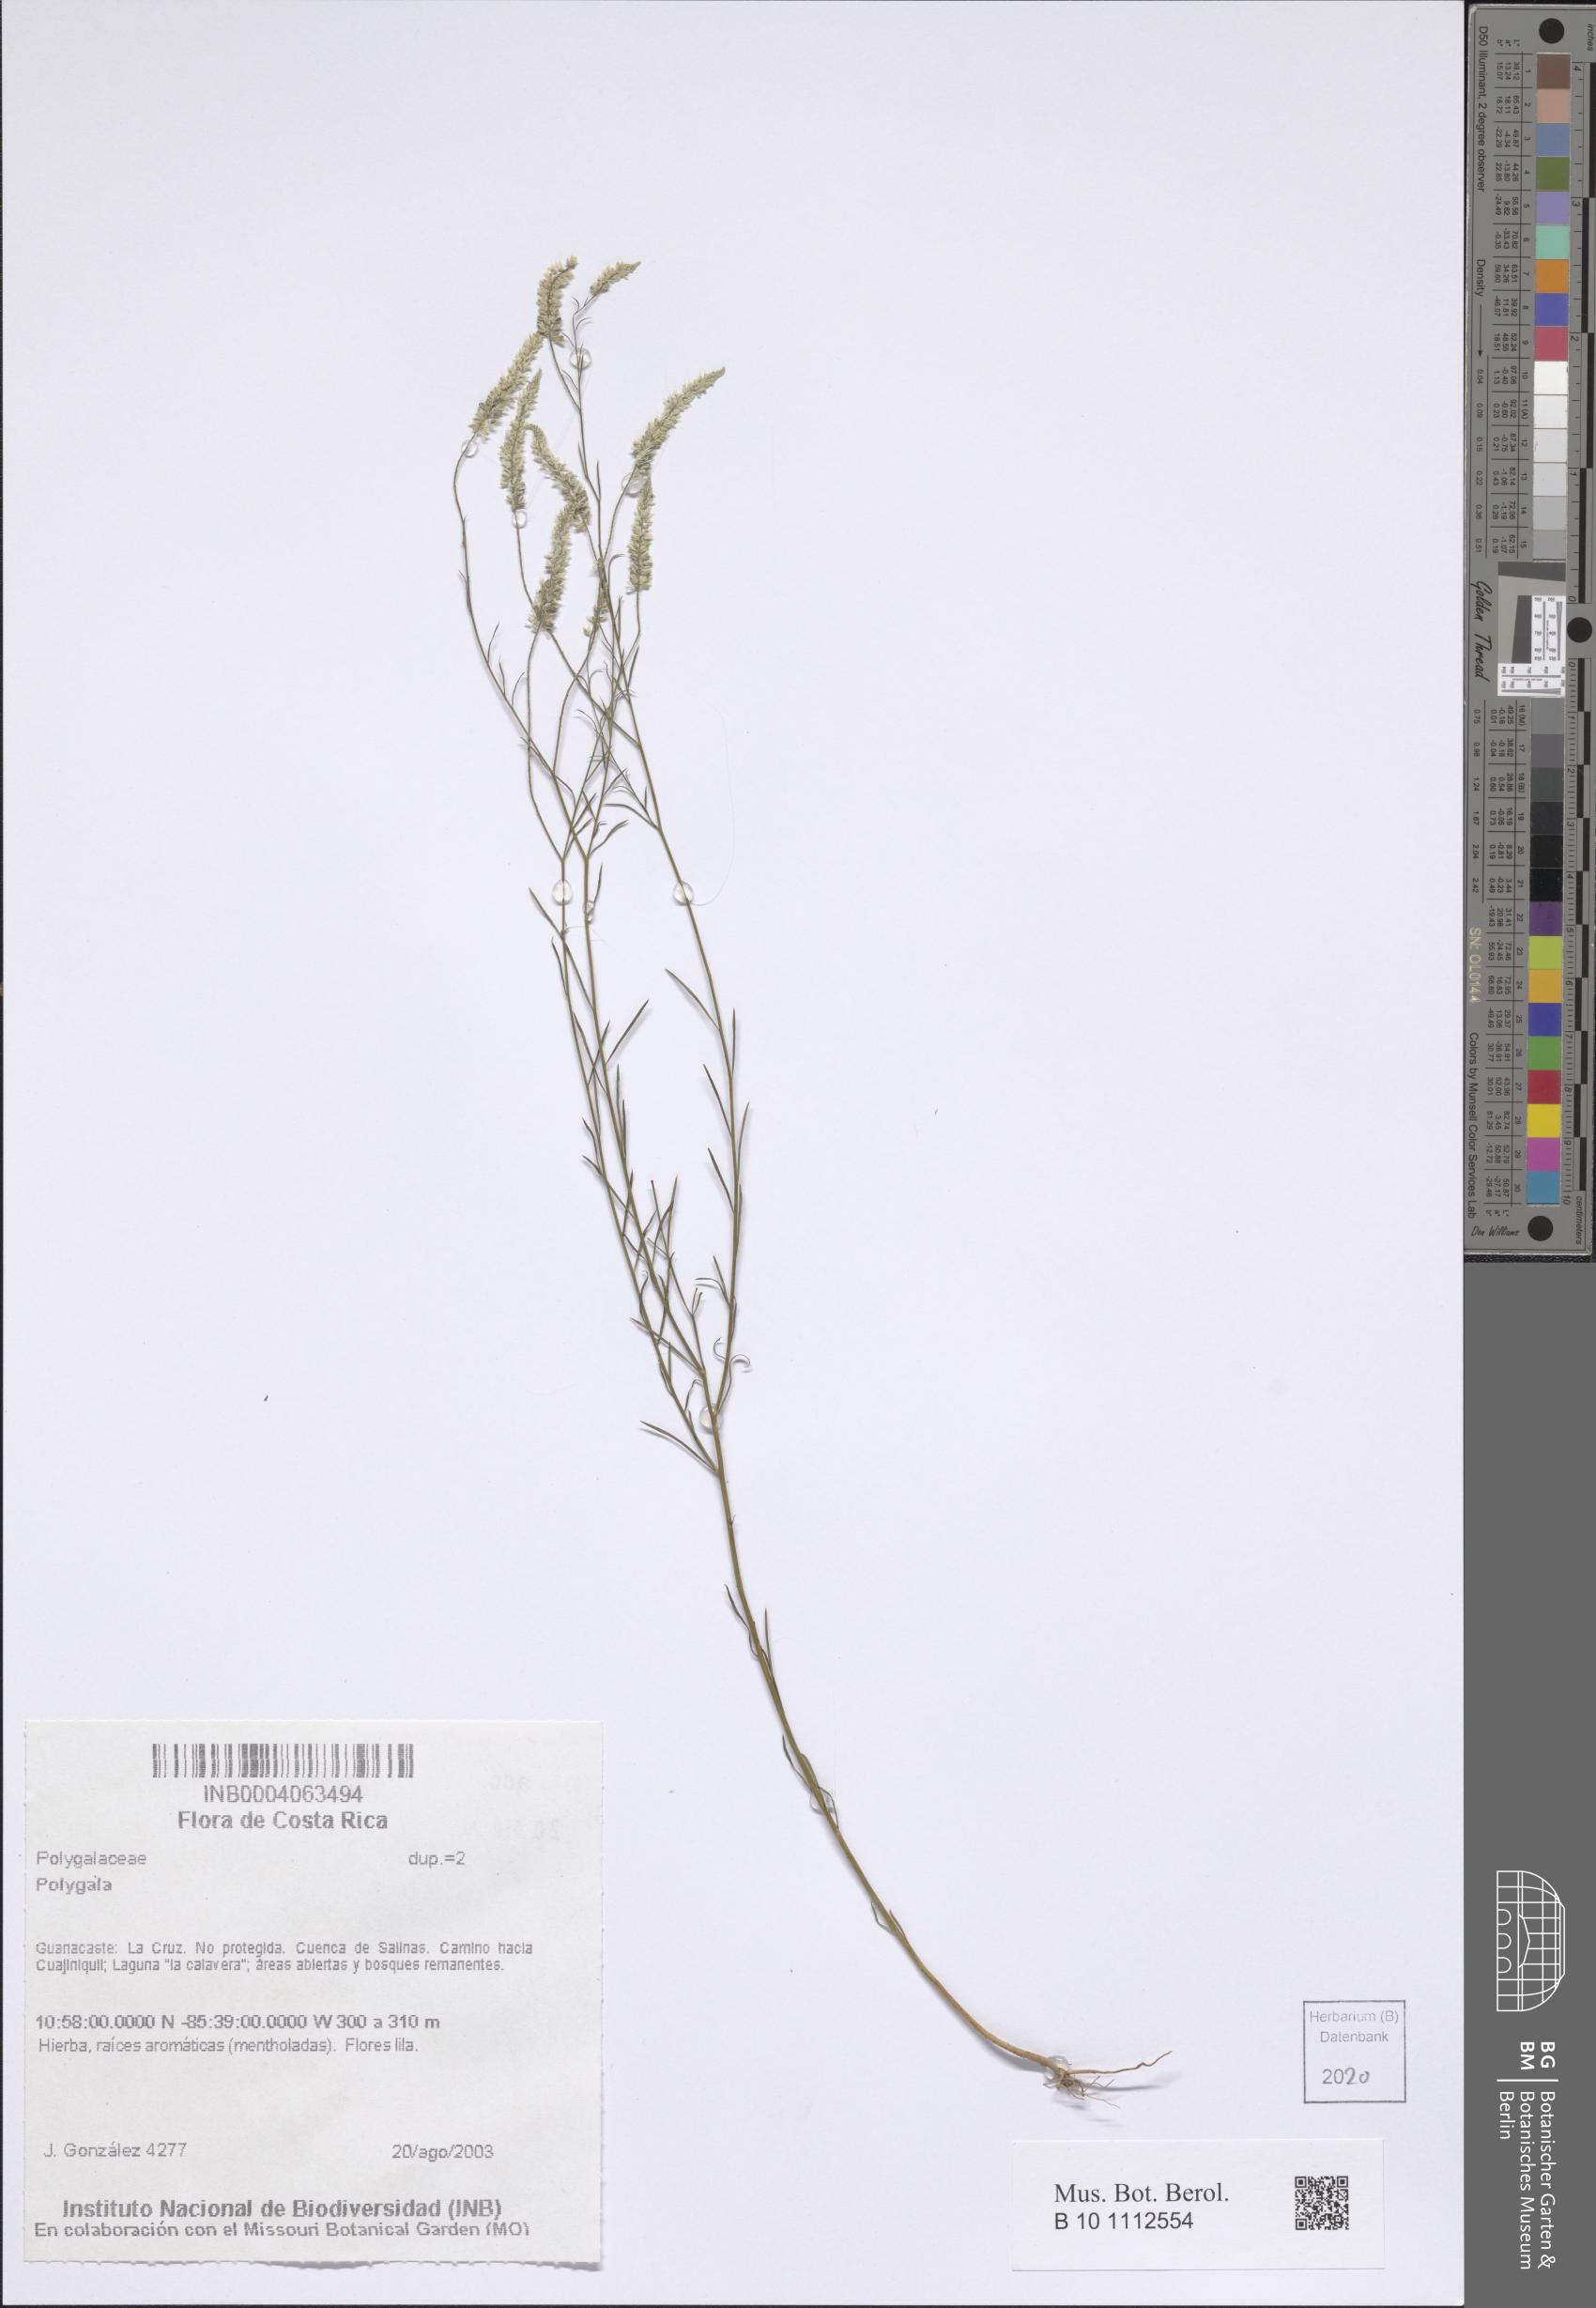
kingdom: Plantae
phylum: Tracheophyta
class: Magnoliopsida
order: Fabales
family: Polygalaceae
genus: Polygala
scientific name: Polygala
